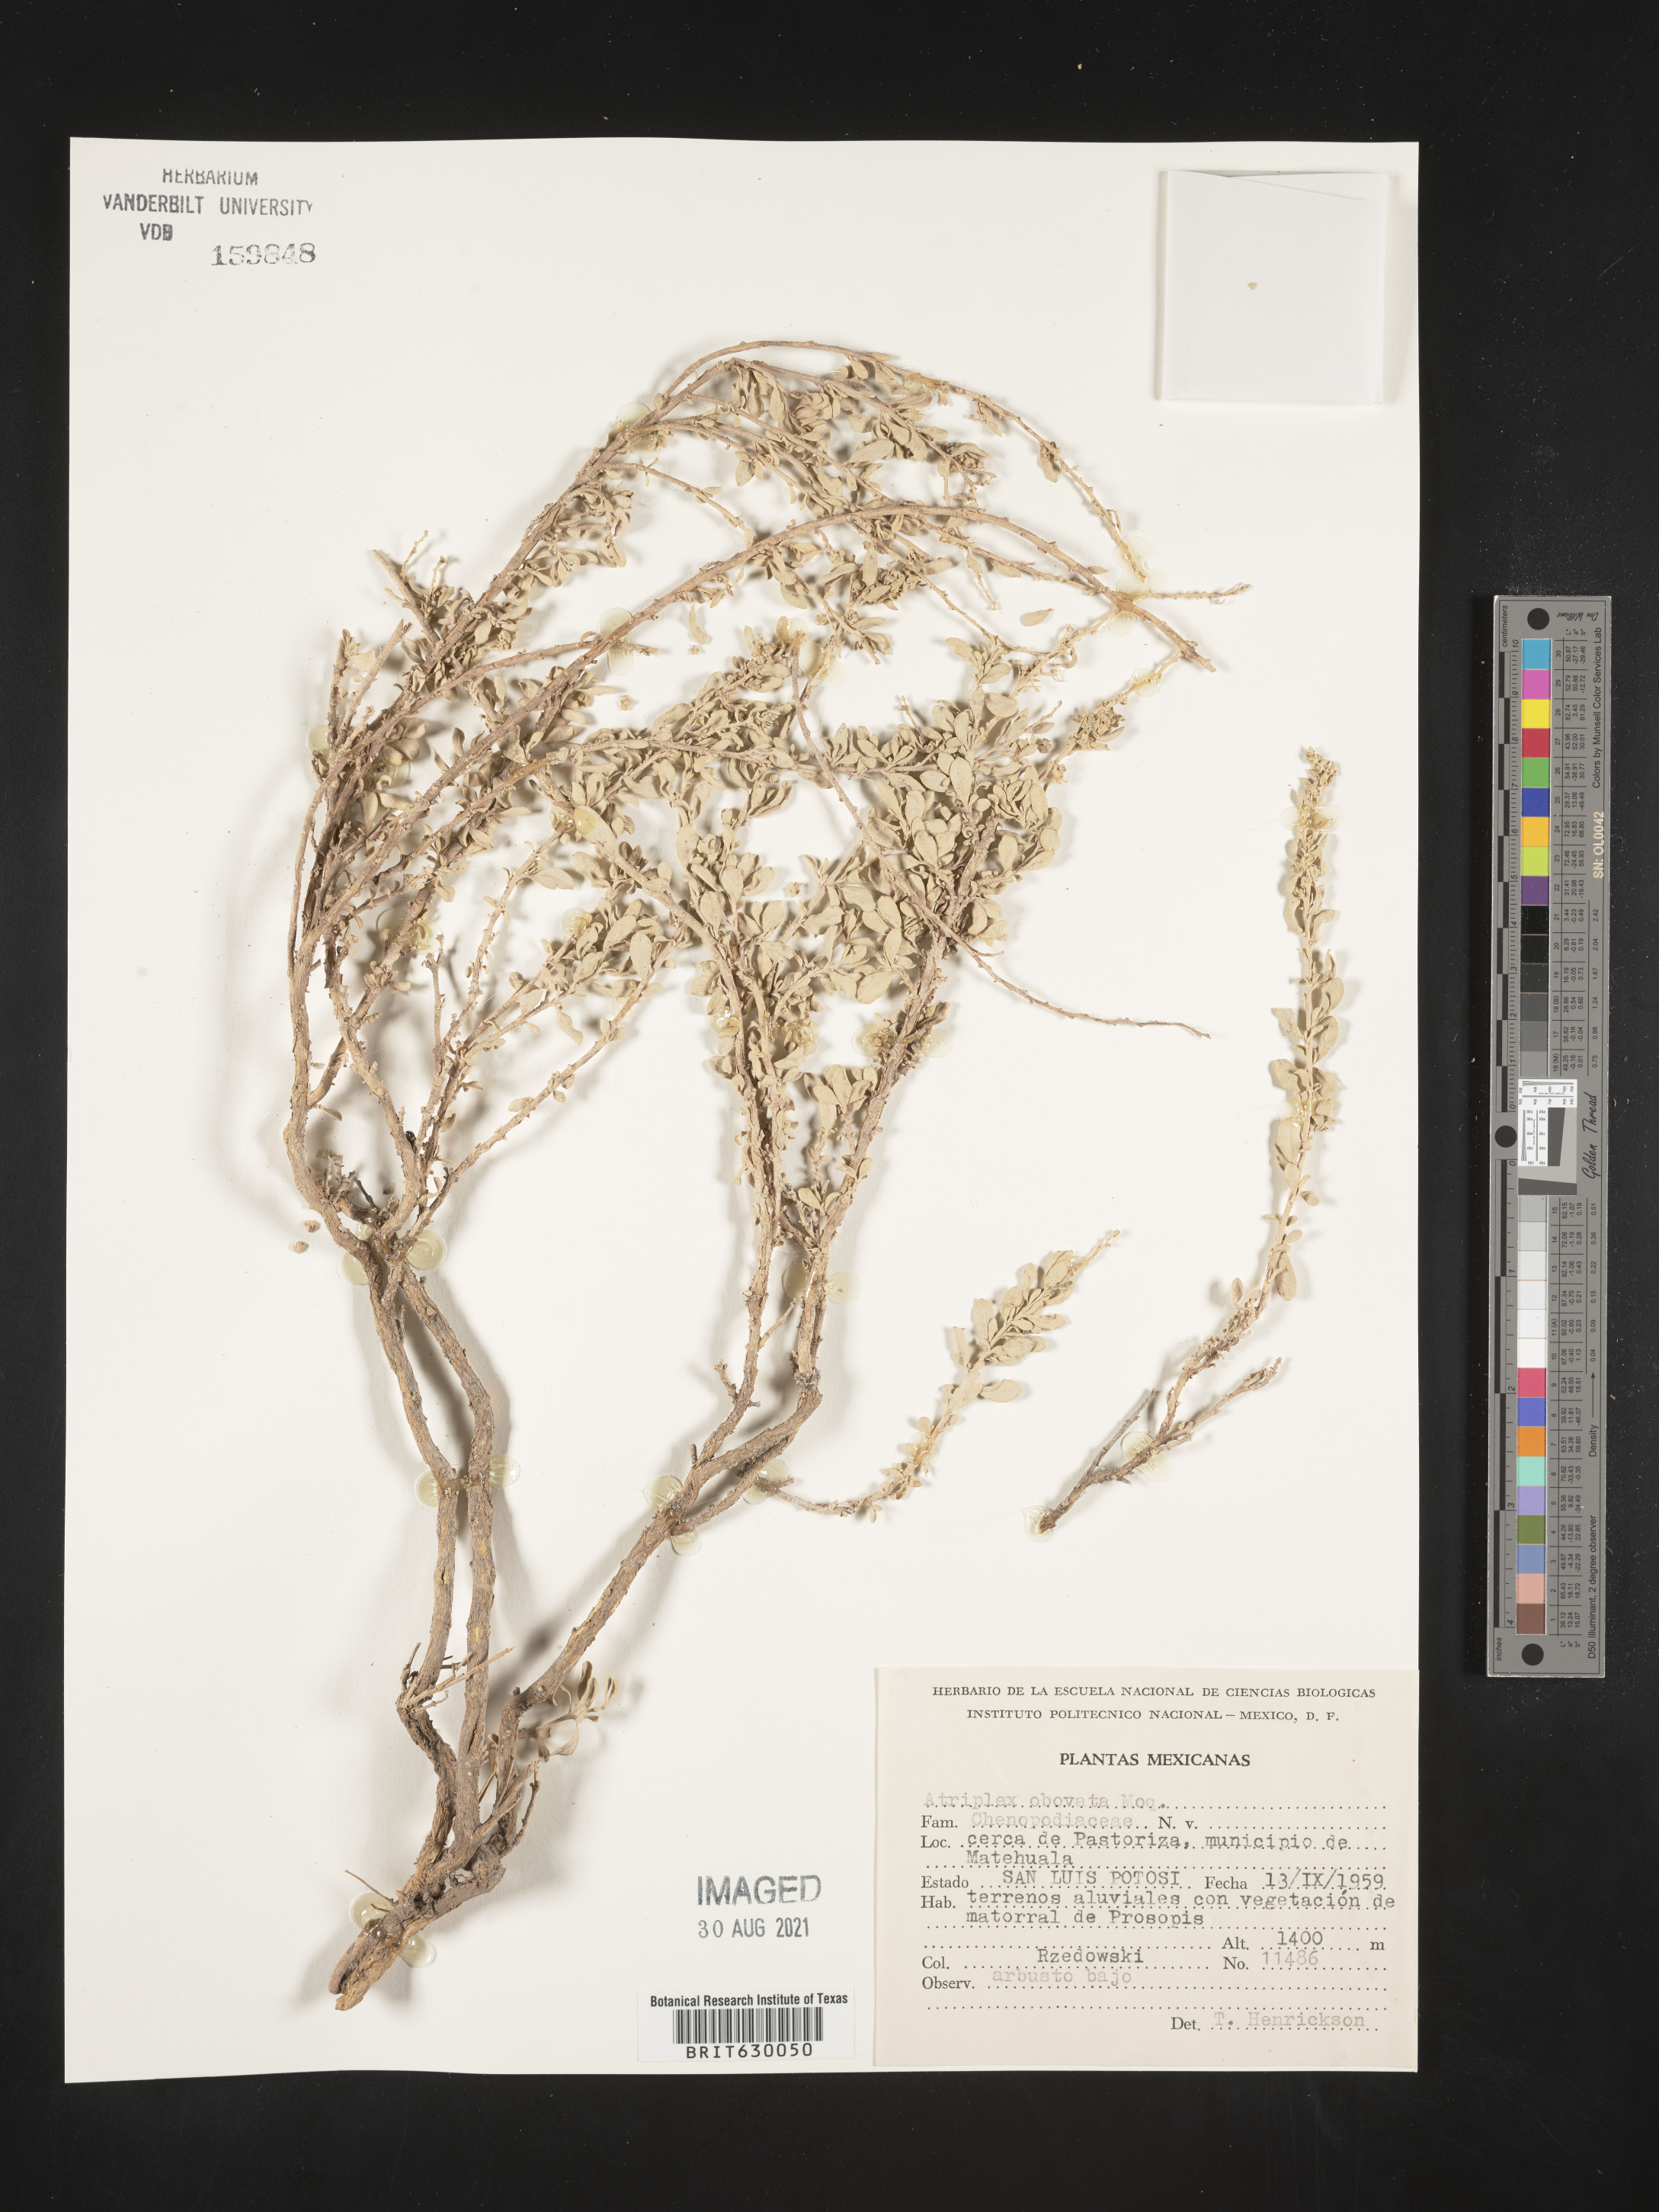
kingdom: Plantae
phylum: Tracheophyta
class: Magnoliopsida
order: Caryophyllales
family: Amaranthaceae
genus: Atriplex
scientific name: Atriplex
